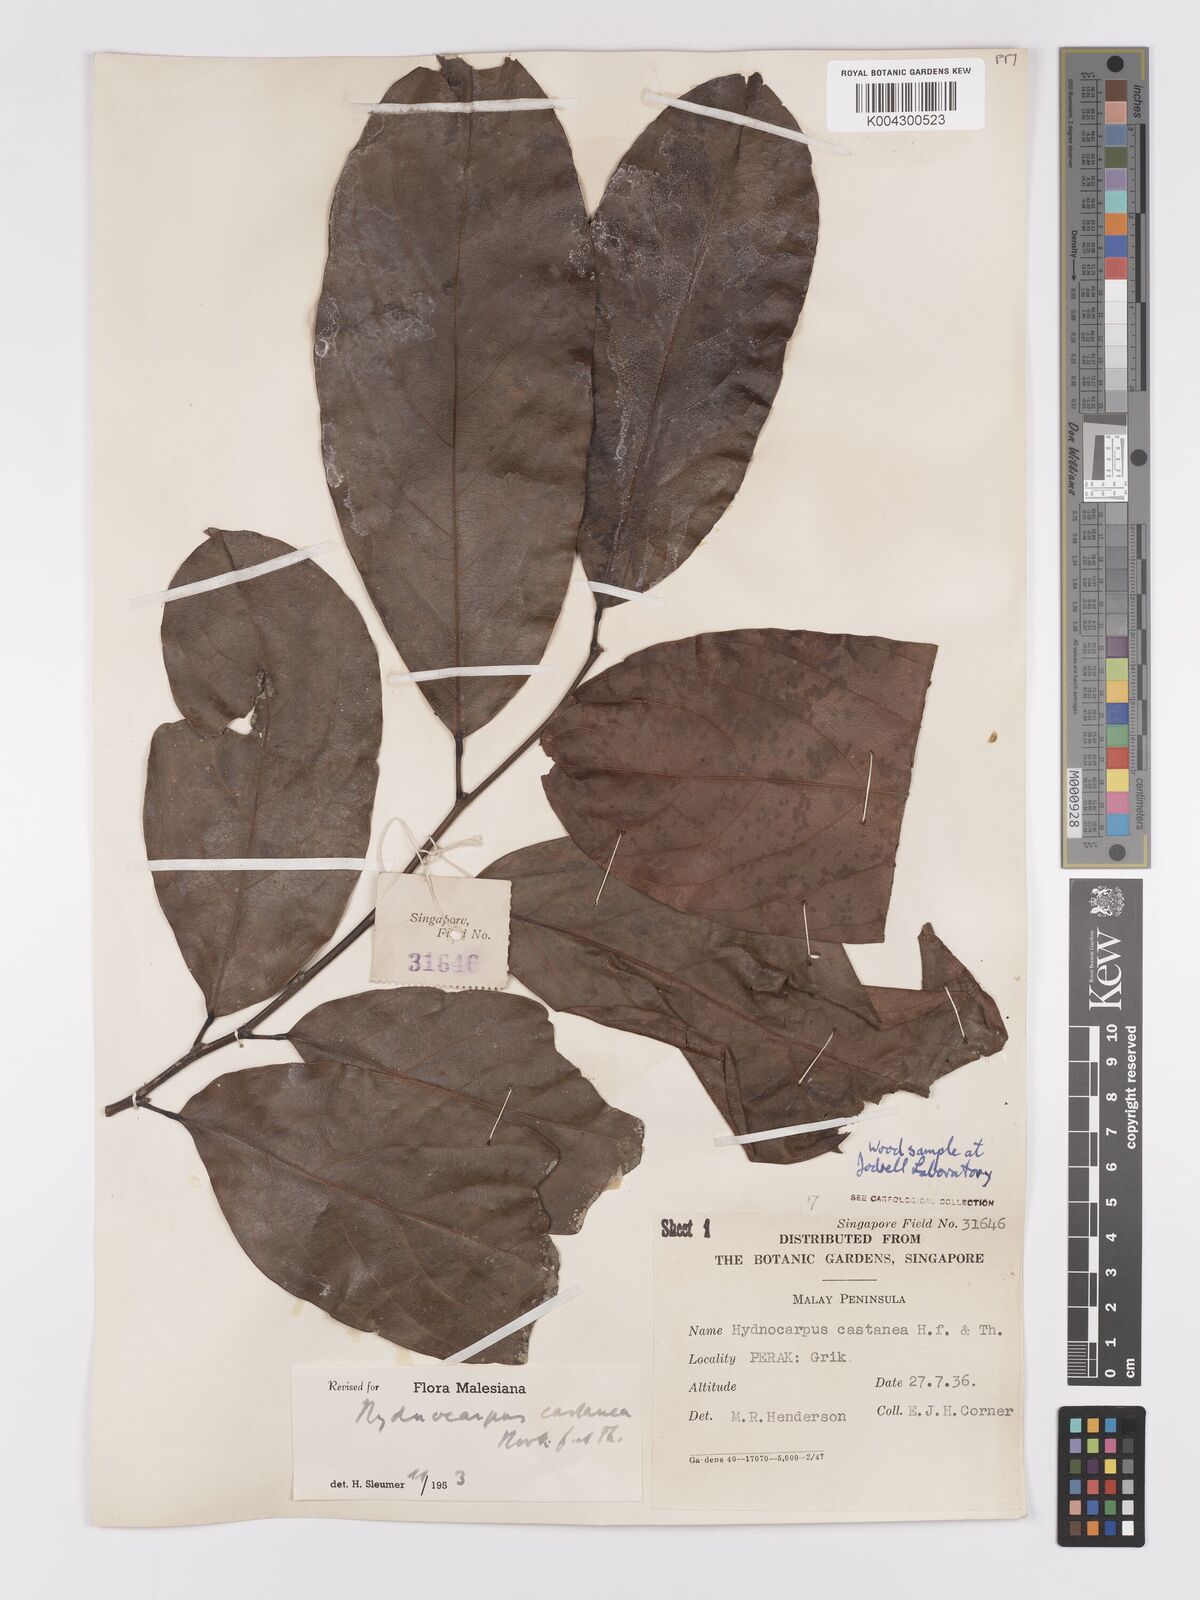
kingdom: Plantae
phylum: Tracheophyta
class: Magnoliopsida
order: Malpighiales
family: Achariaceae
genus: Hydnocarpus
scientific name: Hydnocarpus castaneus
